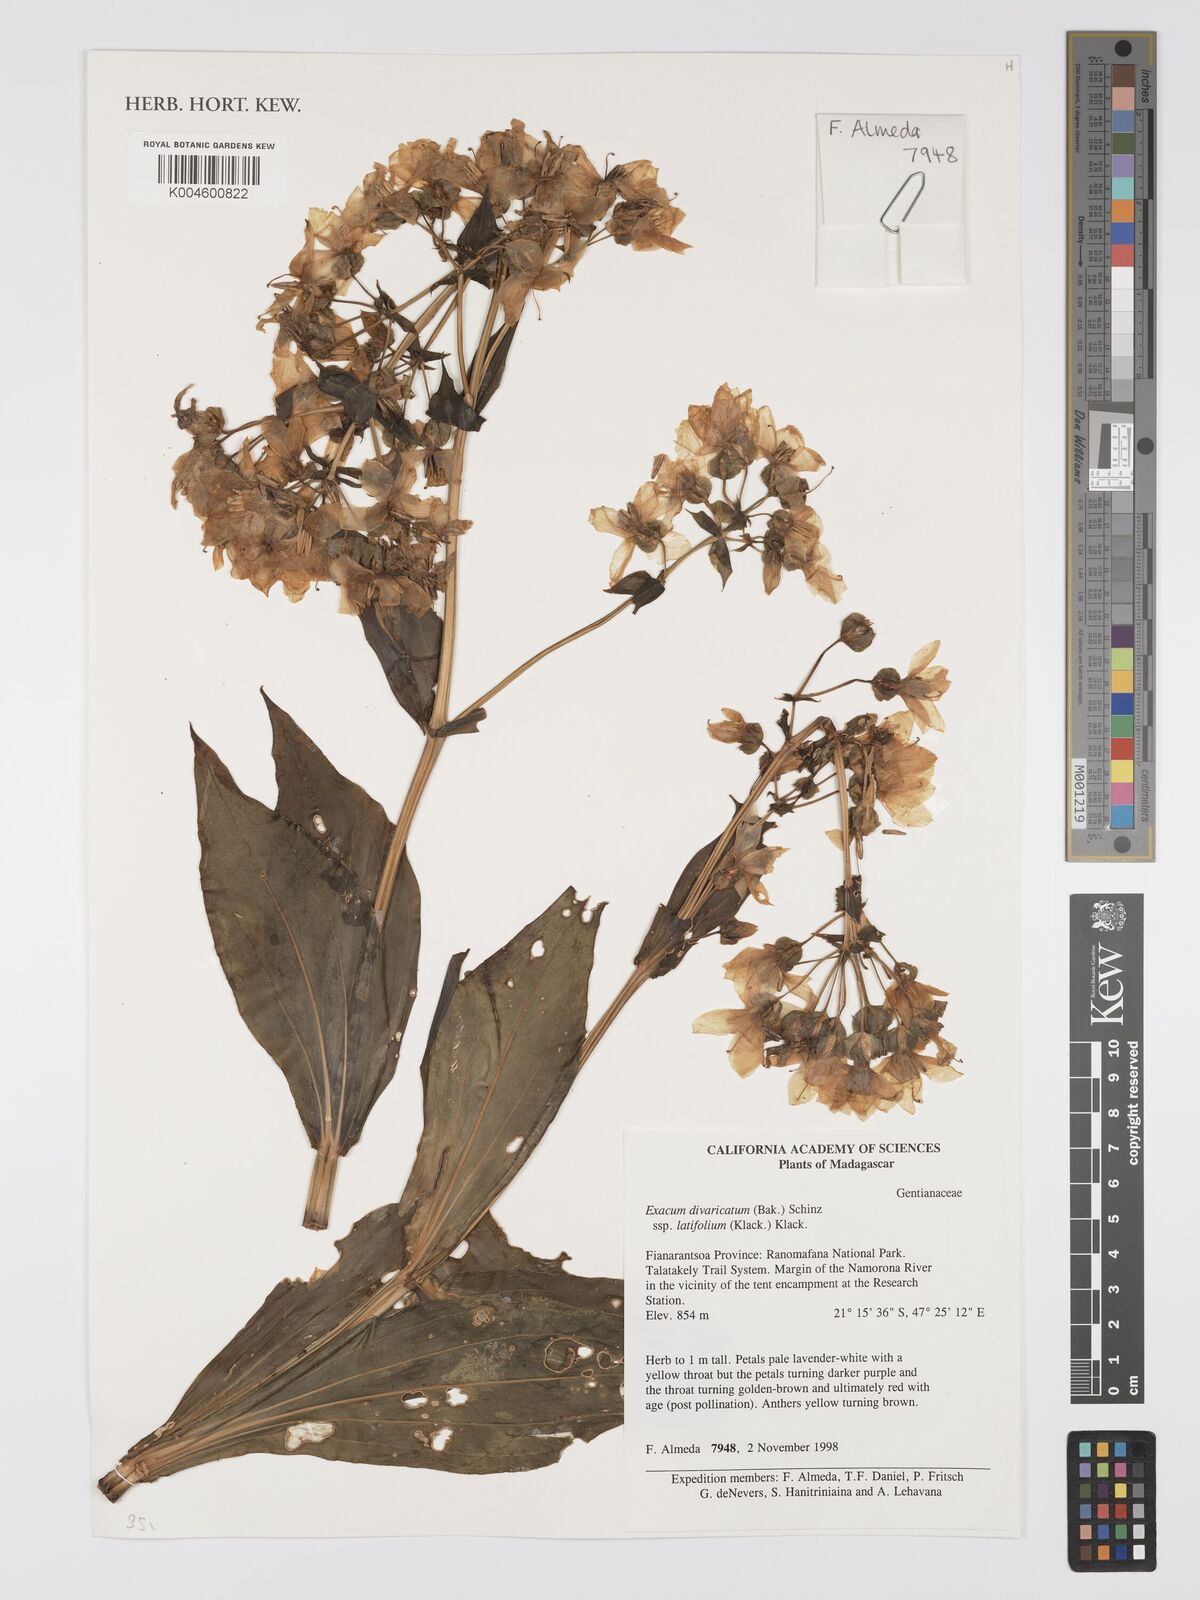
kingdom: Plantae
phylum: Tracheophyta
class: Magnoliopsida
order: Gentianales
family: Gentianaceae
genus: Exacum
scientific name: Exacum divaricatum
